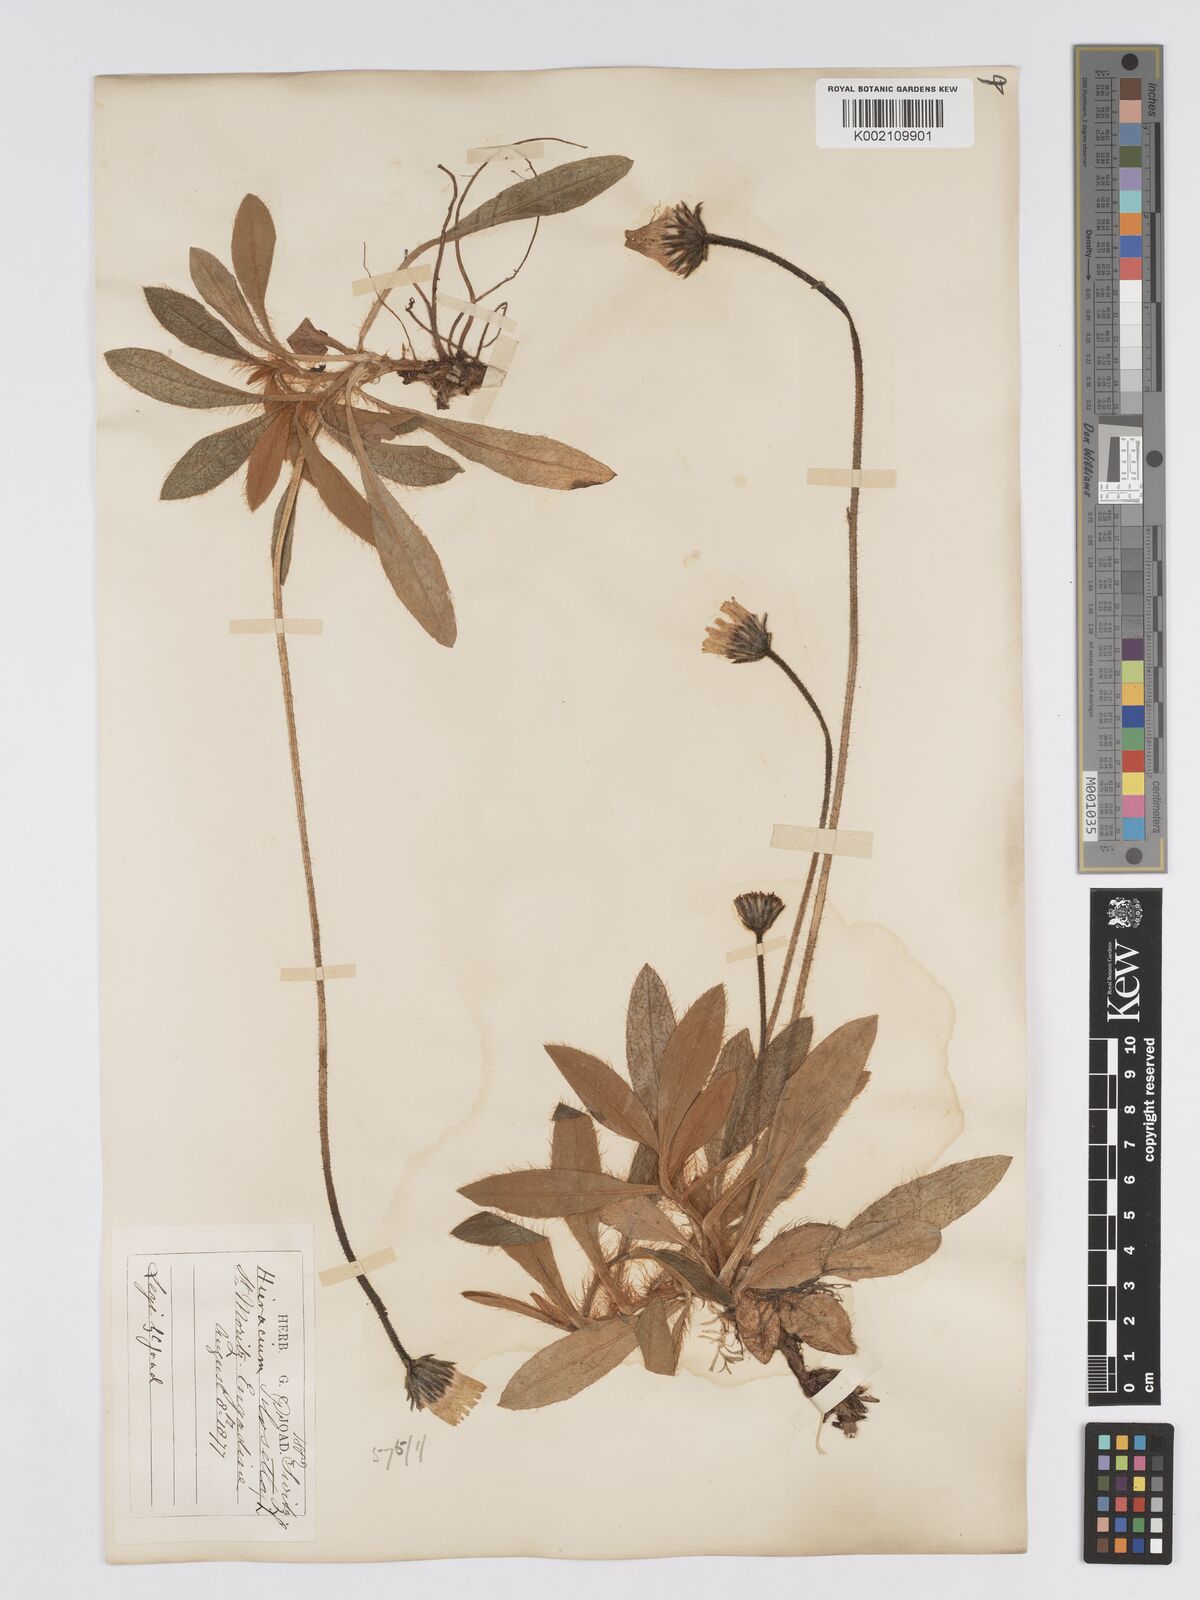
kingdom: Plantae
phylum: Tracheophyta
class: Magnoliopsida
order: Asterales
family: Asteraceae
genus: Pilosella
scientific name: Pilosella hoppeana
